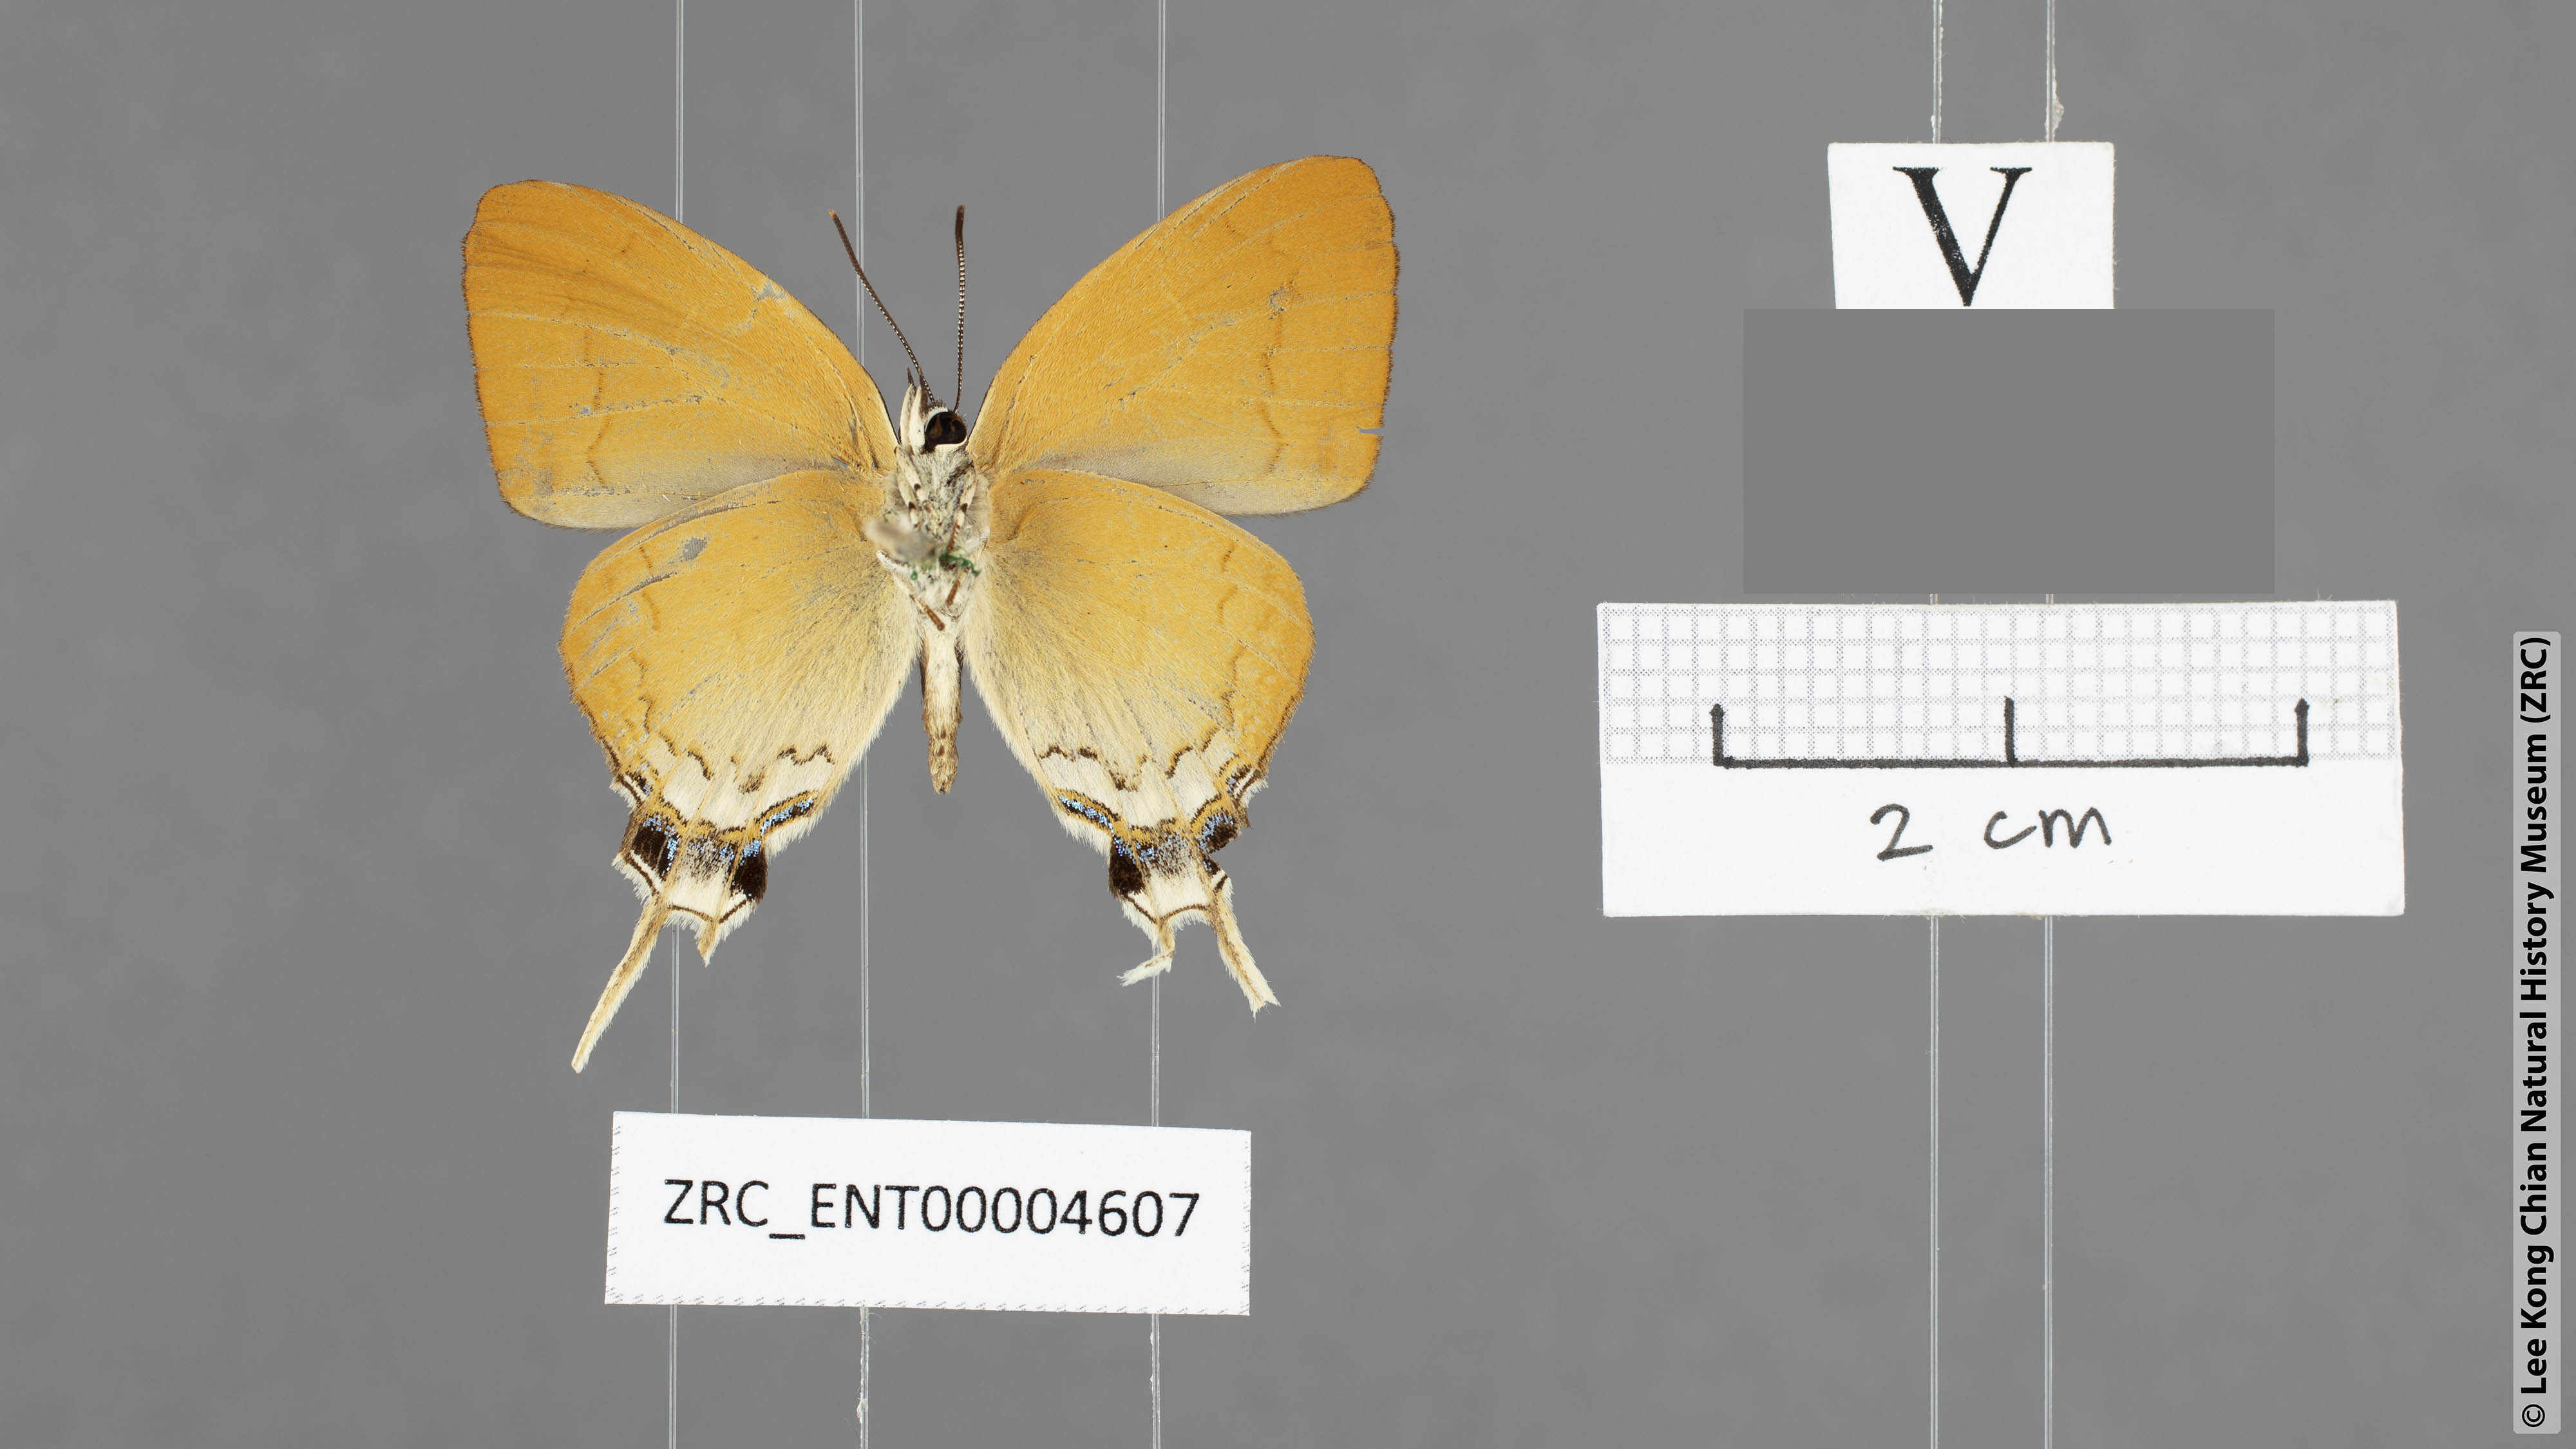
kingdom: Animalia
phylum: Arthropoda
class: Insecta
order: Lepidoptera
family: Lycaenidae
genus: Ticherra
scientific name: Ticherra acte
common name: Blue imperial
